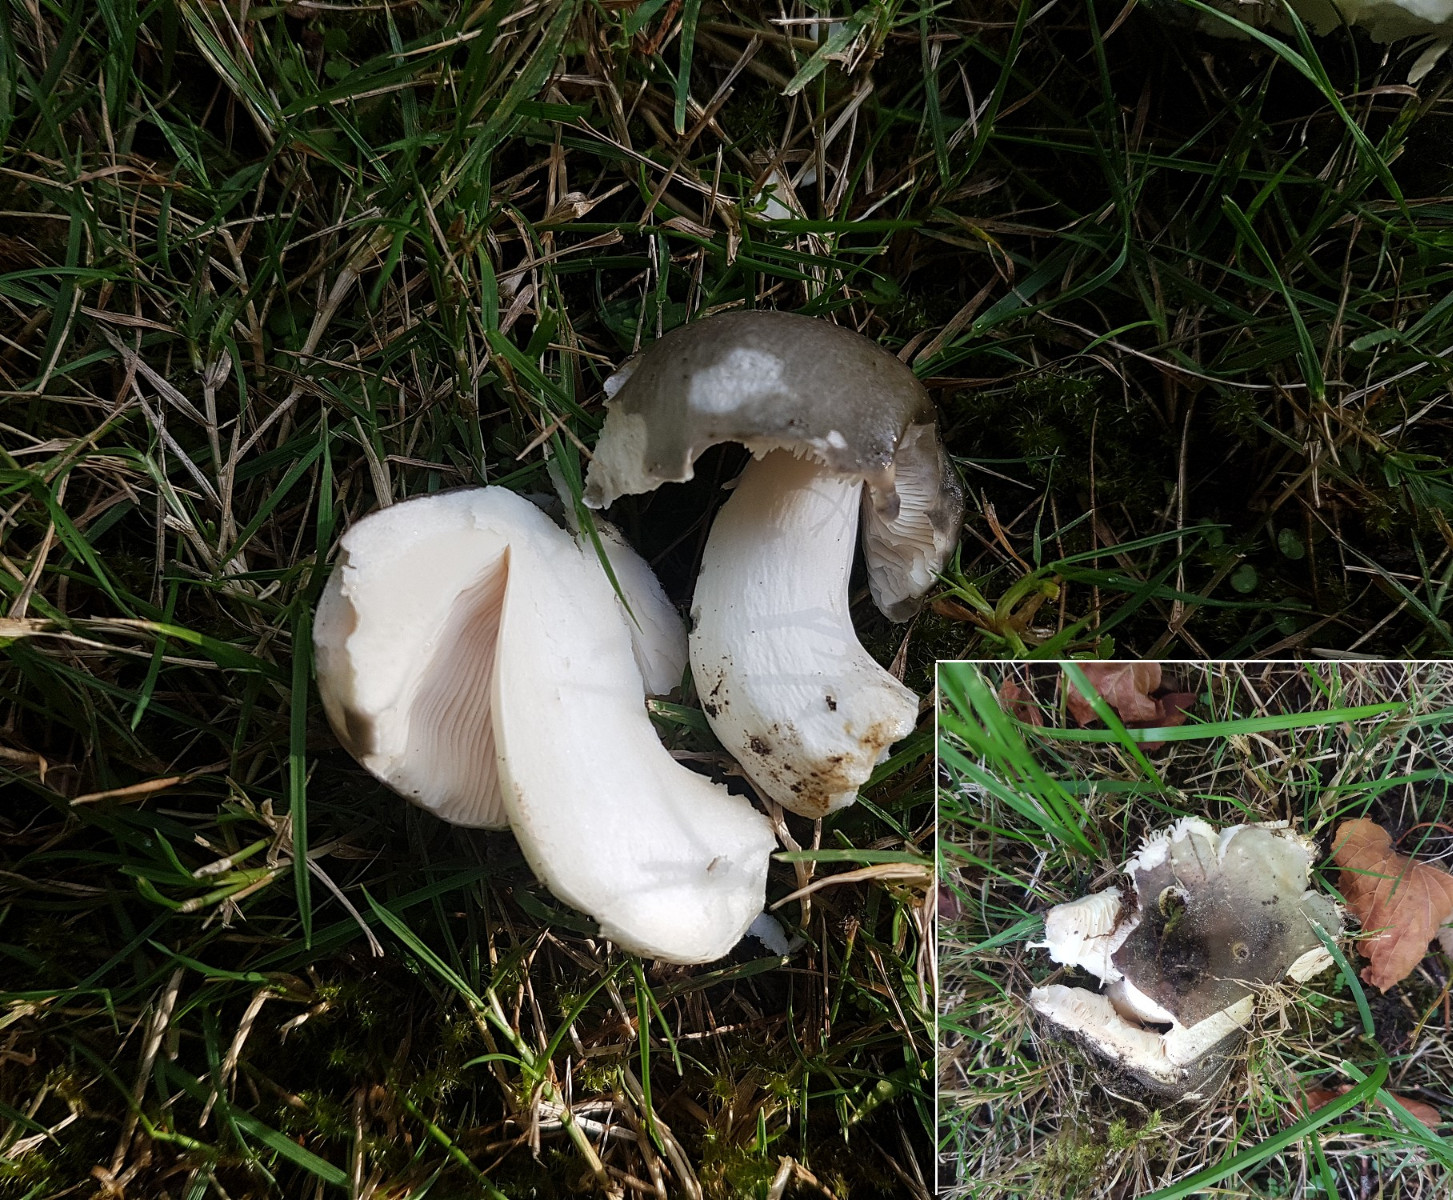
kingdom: Fungi
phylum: Basidiomycota
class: Agaricomycetes
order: Russulales
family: Russulaceae
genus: Russula
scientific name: Russula cyanoxantha
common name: broget skørhat
